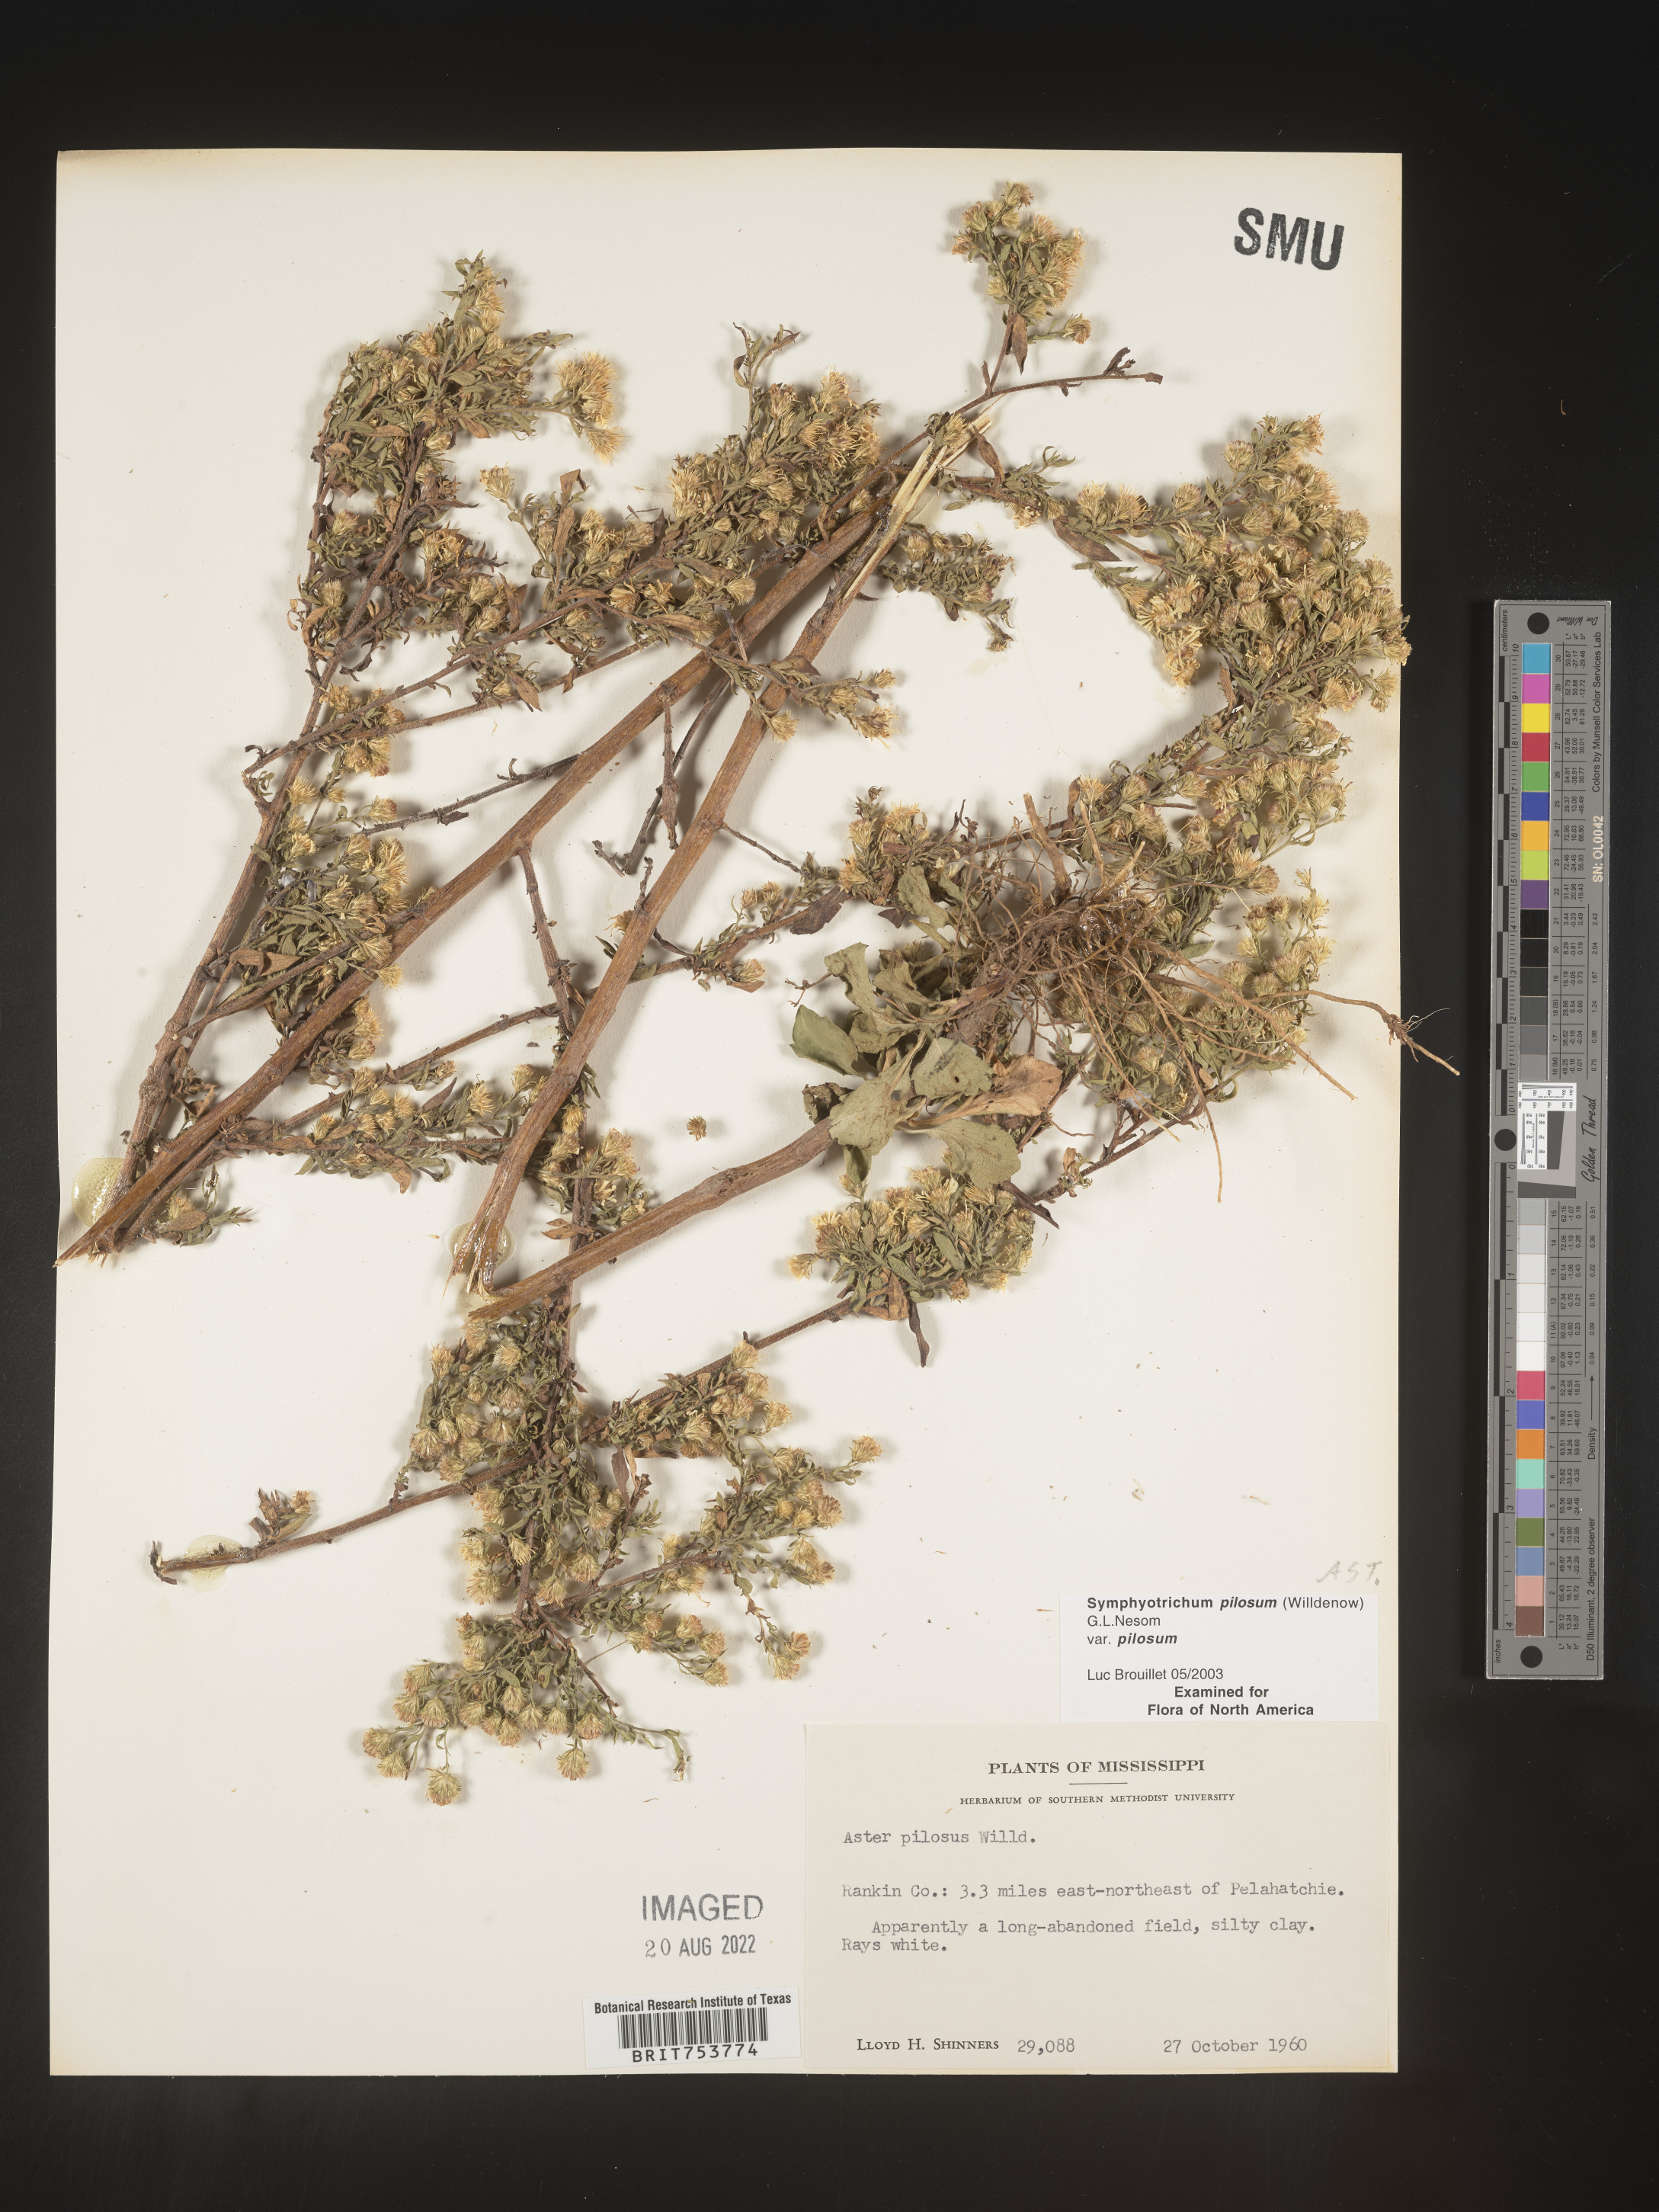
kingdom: Plantae
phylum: Tracheophyta
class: Magnoliopsida
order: Asterales
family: Asteraceae
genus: Symphyotrichum
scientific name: Symphyotrichum pilosum
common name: Awl aster
